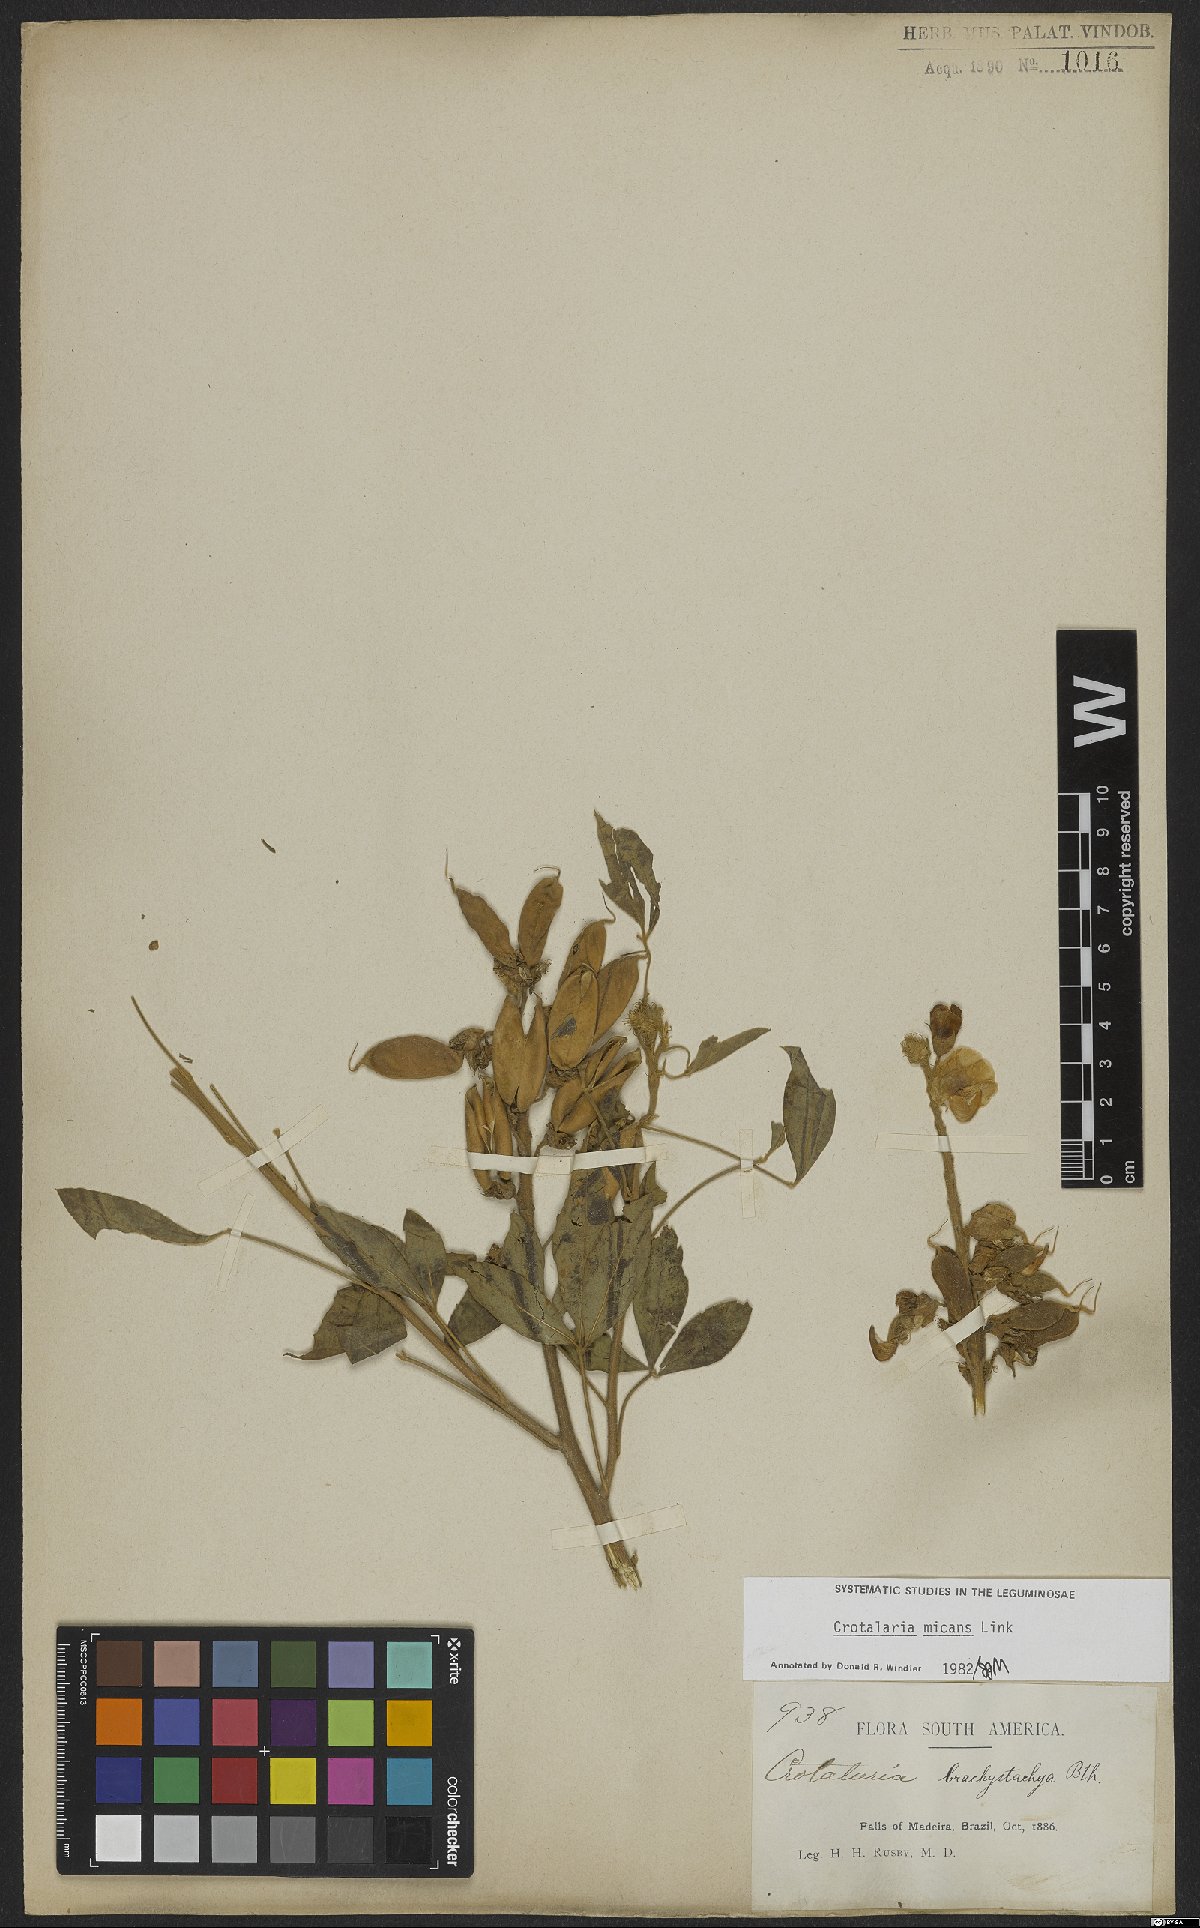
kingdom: Plantae
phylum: Tracheophyta
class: Magnoliopsida
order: Fabales
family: Fabaceae
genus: Crotalaria
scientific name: Crotalaria micans
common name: Caracas rattlebox
